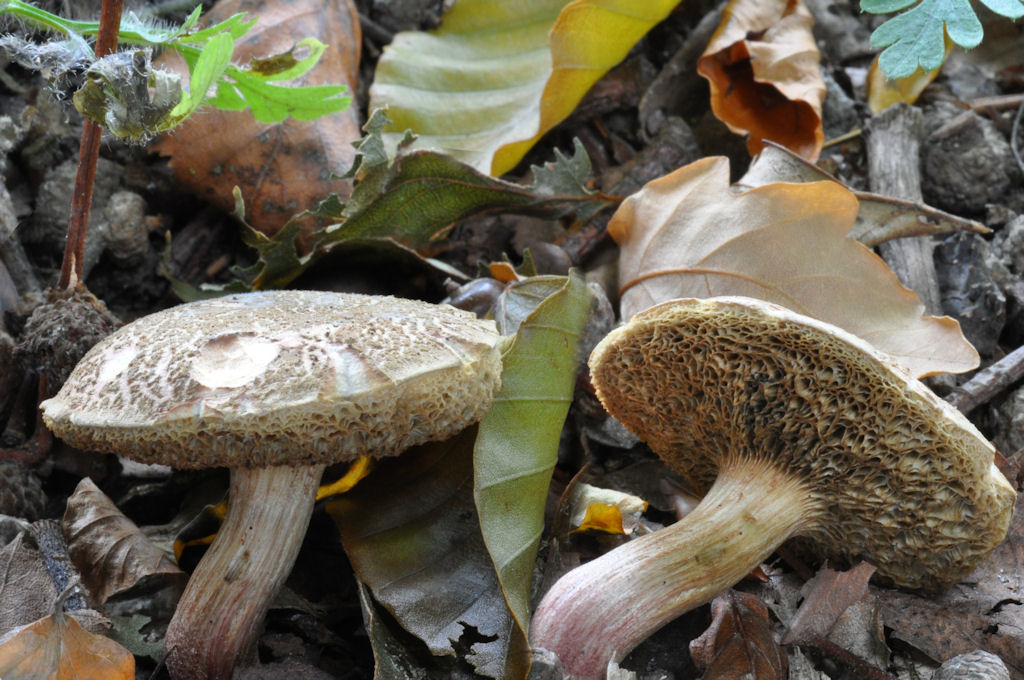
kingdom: Fungi
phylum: Basidiomycota
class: Agaricomycetes
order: Boletales
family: Boletaceae
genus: Xerocomellus
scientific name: Xerocomellus chrysenteron
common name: rødsprukken rørhat
